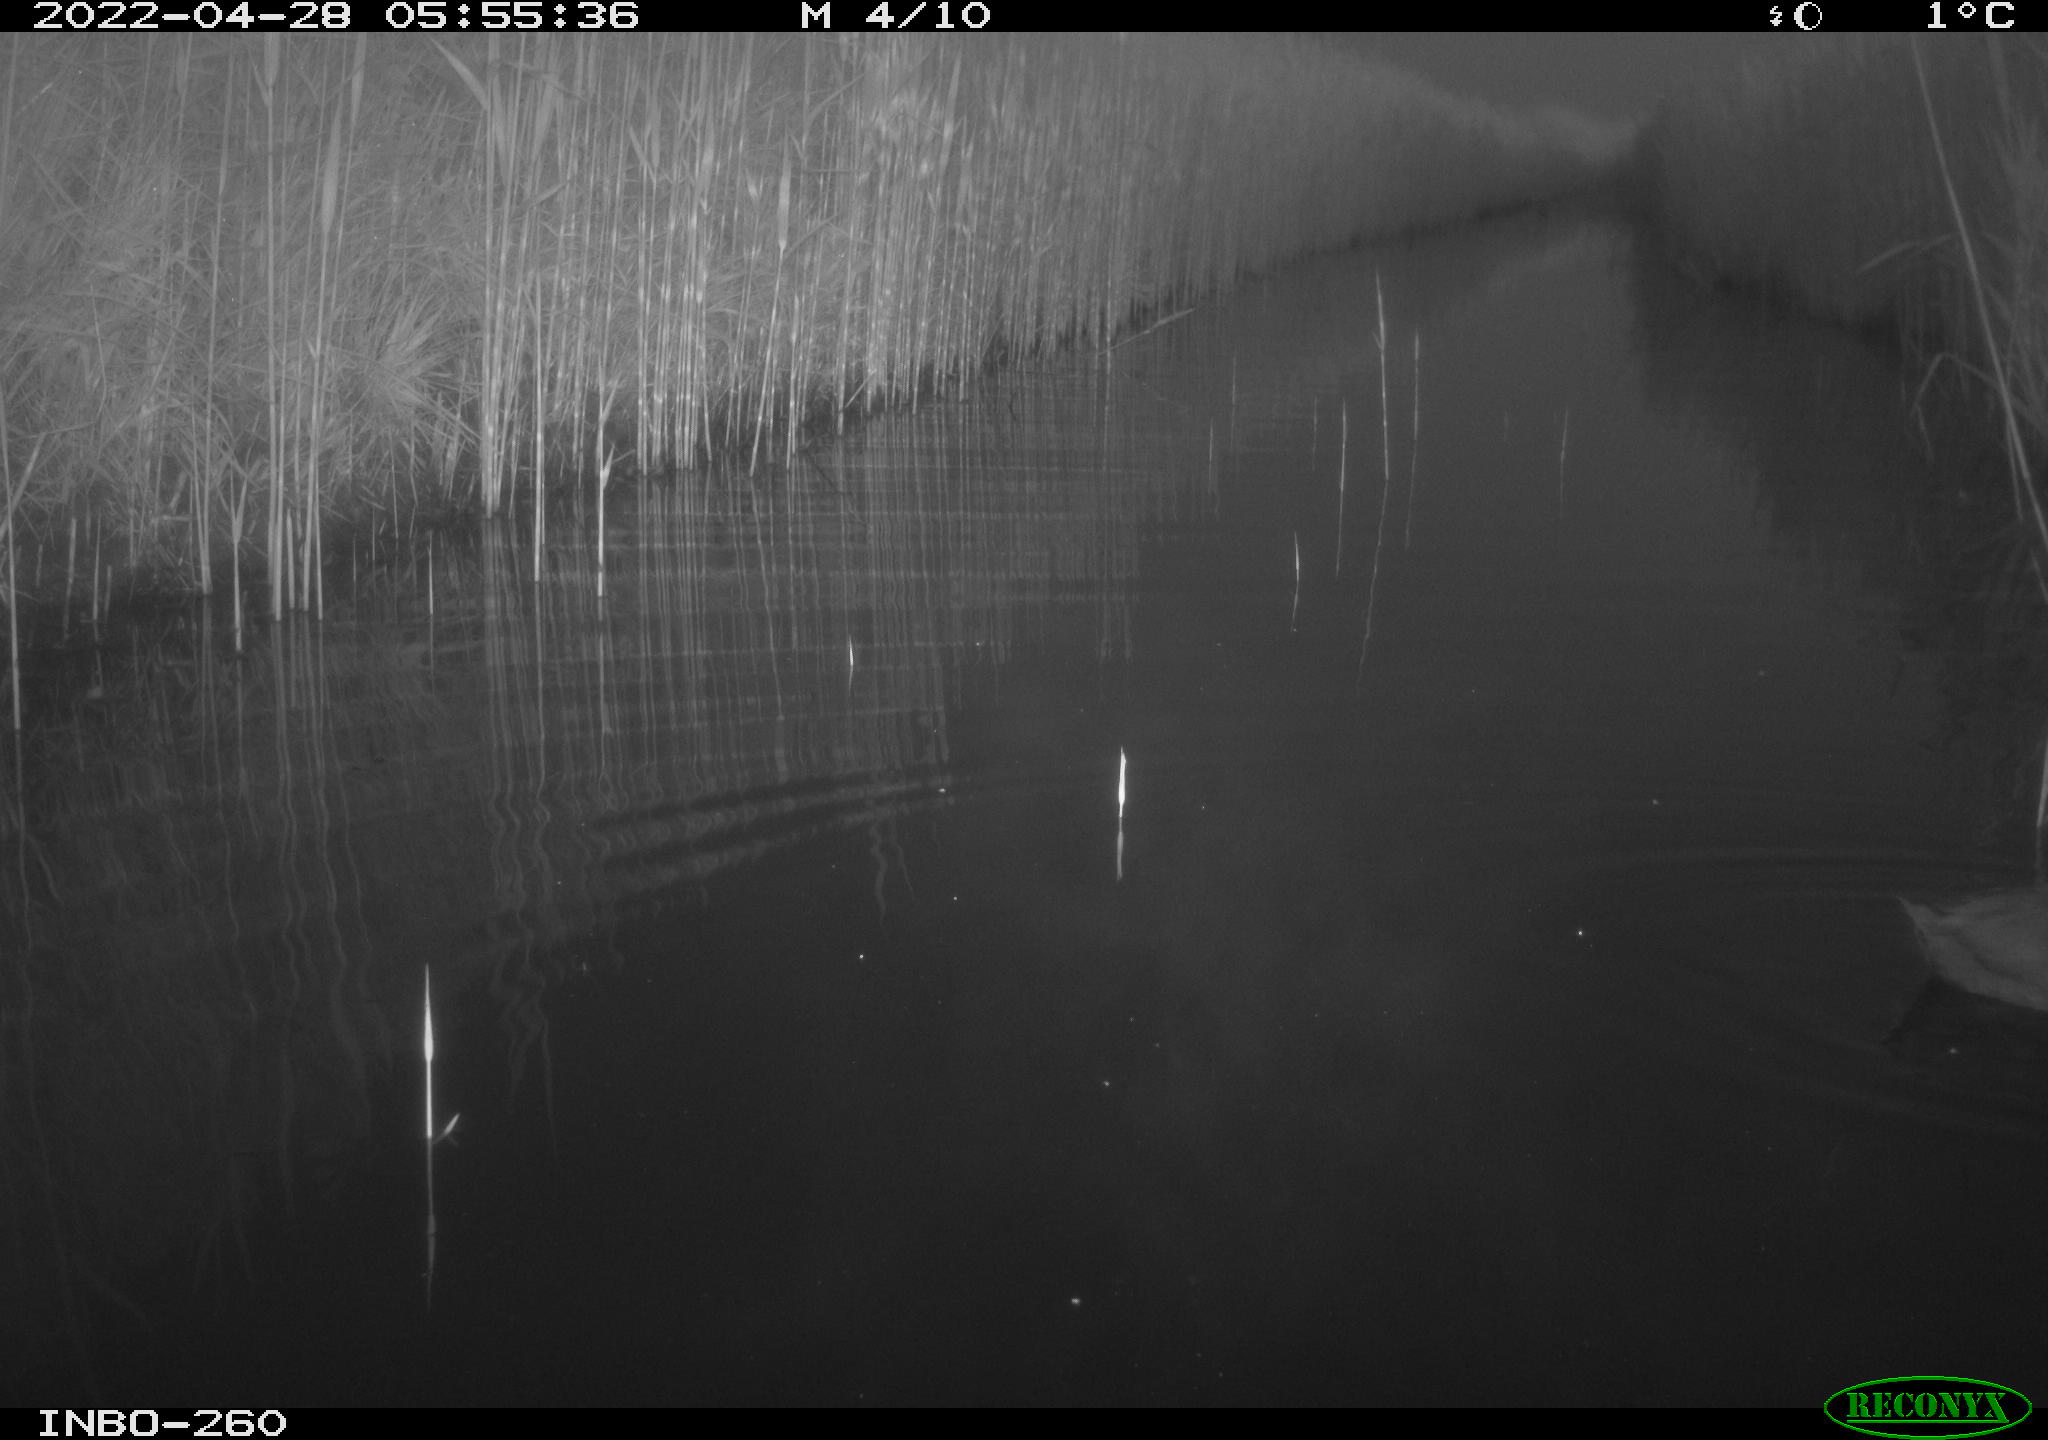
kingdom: Animalia
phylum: Chordata
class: Aves
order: Anseriformes
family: Anatidae
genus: Anas
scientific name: Anas platyrhynchos
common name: Mallard
